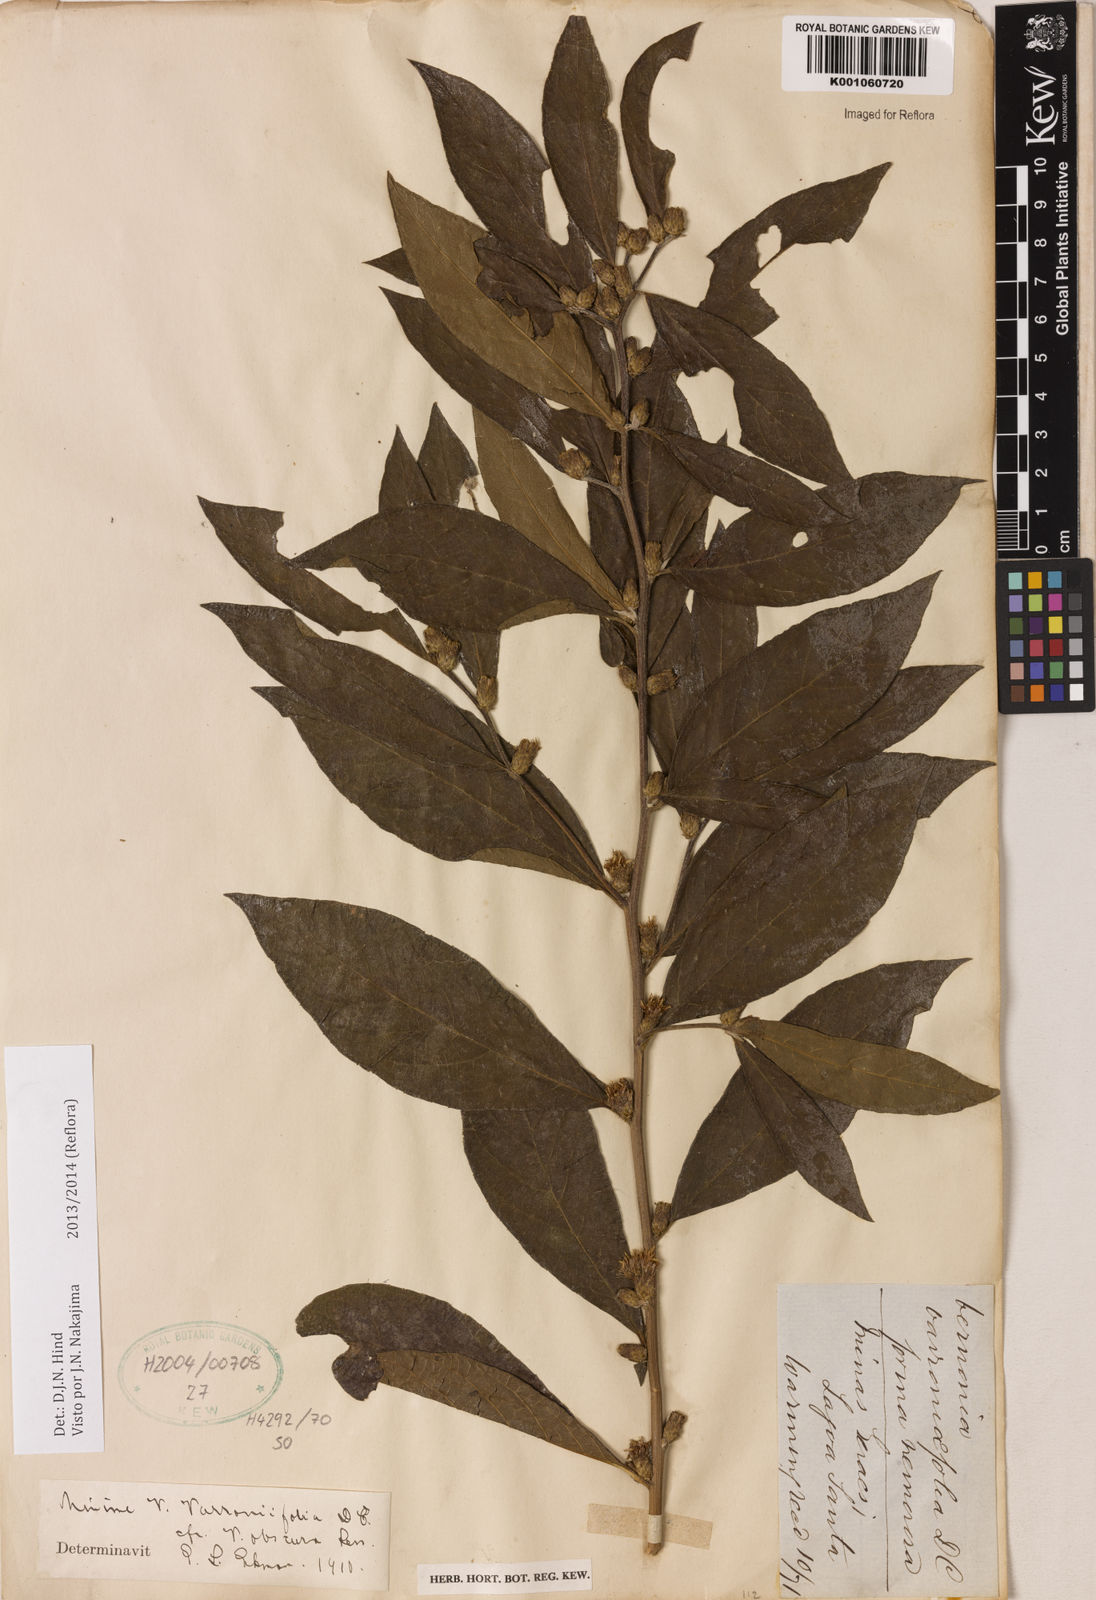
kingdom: Plantae
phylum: Tracheophyta
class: Magnoliopsida
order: Asterales
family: Asteraceae
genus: Lessingianthus
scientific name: Lessingianthus varroniifolius
